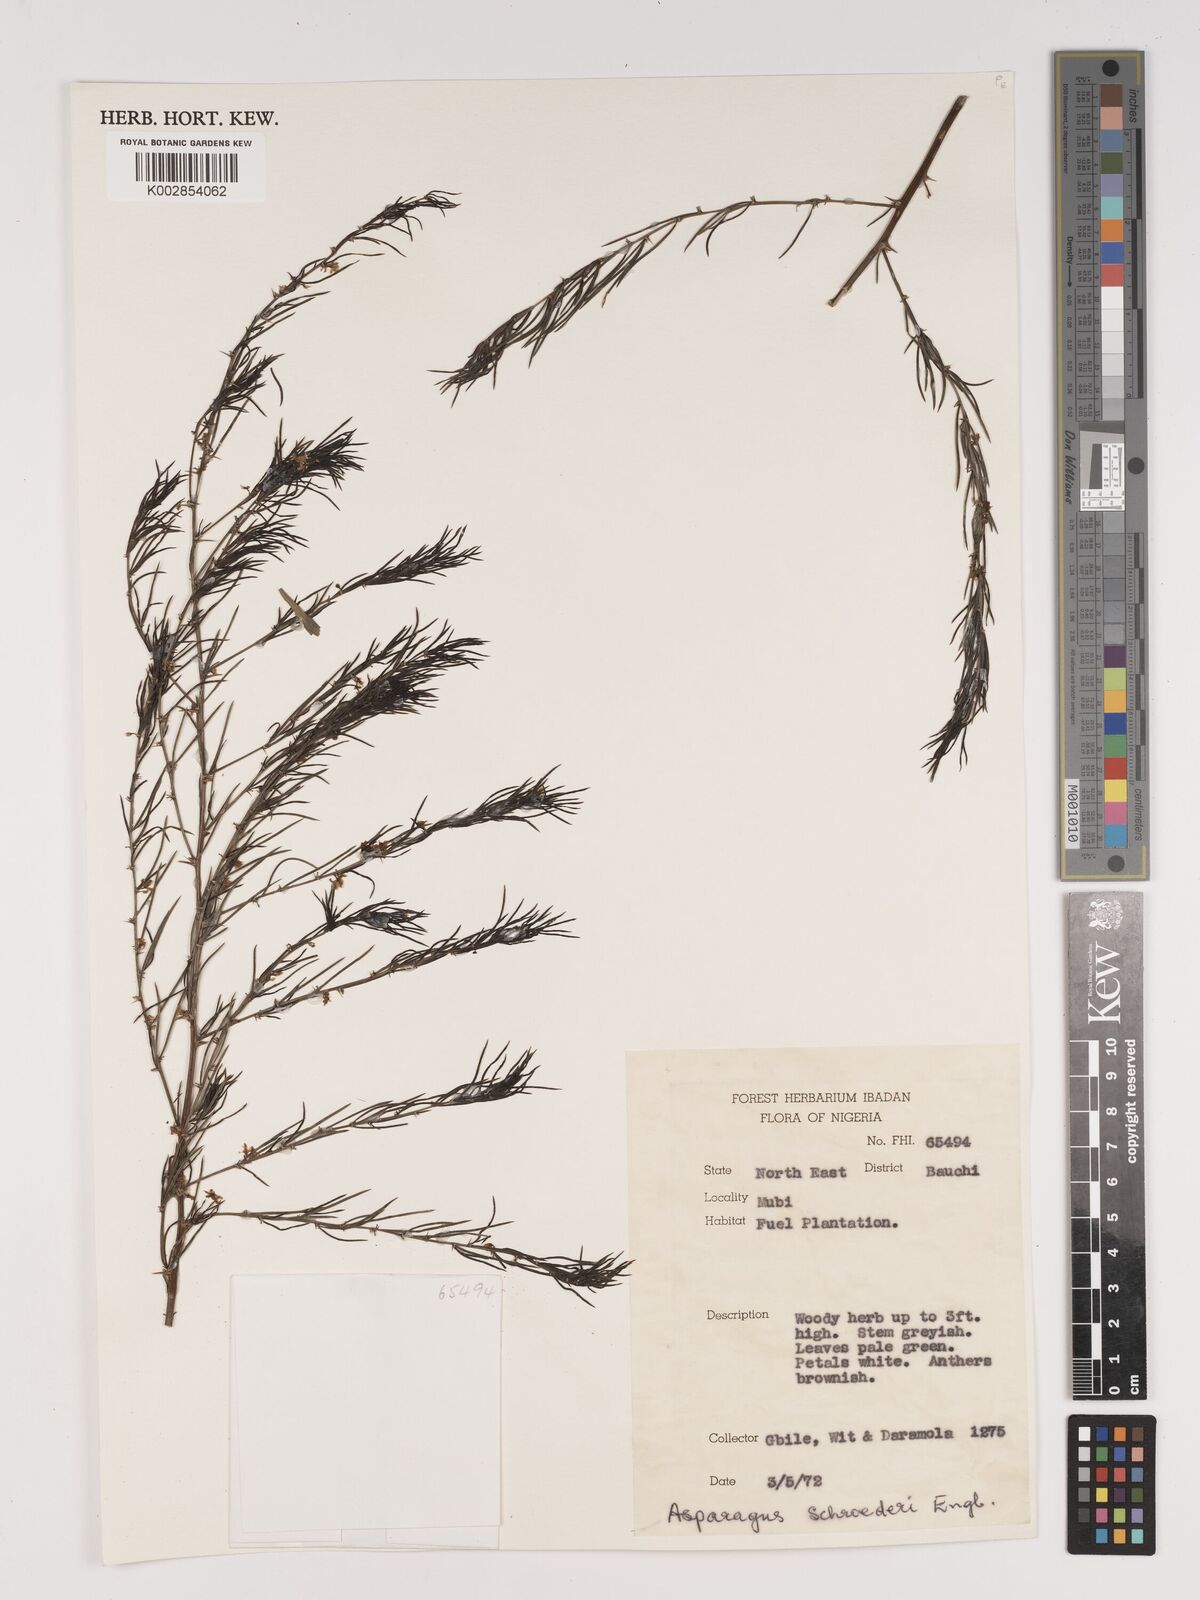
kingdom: Plantae
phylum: Tracheophyta
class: Liliopsida
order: Asparagales
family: Asparagaceae
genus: Asparagus
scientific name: Asparagus schroederi
